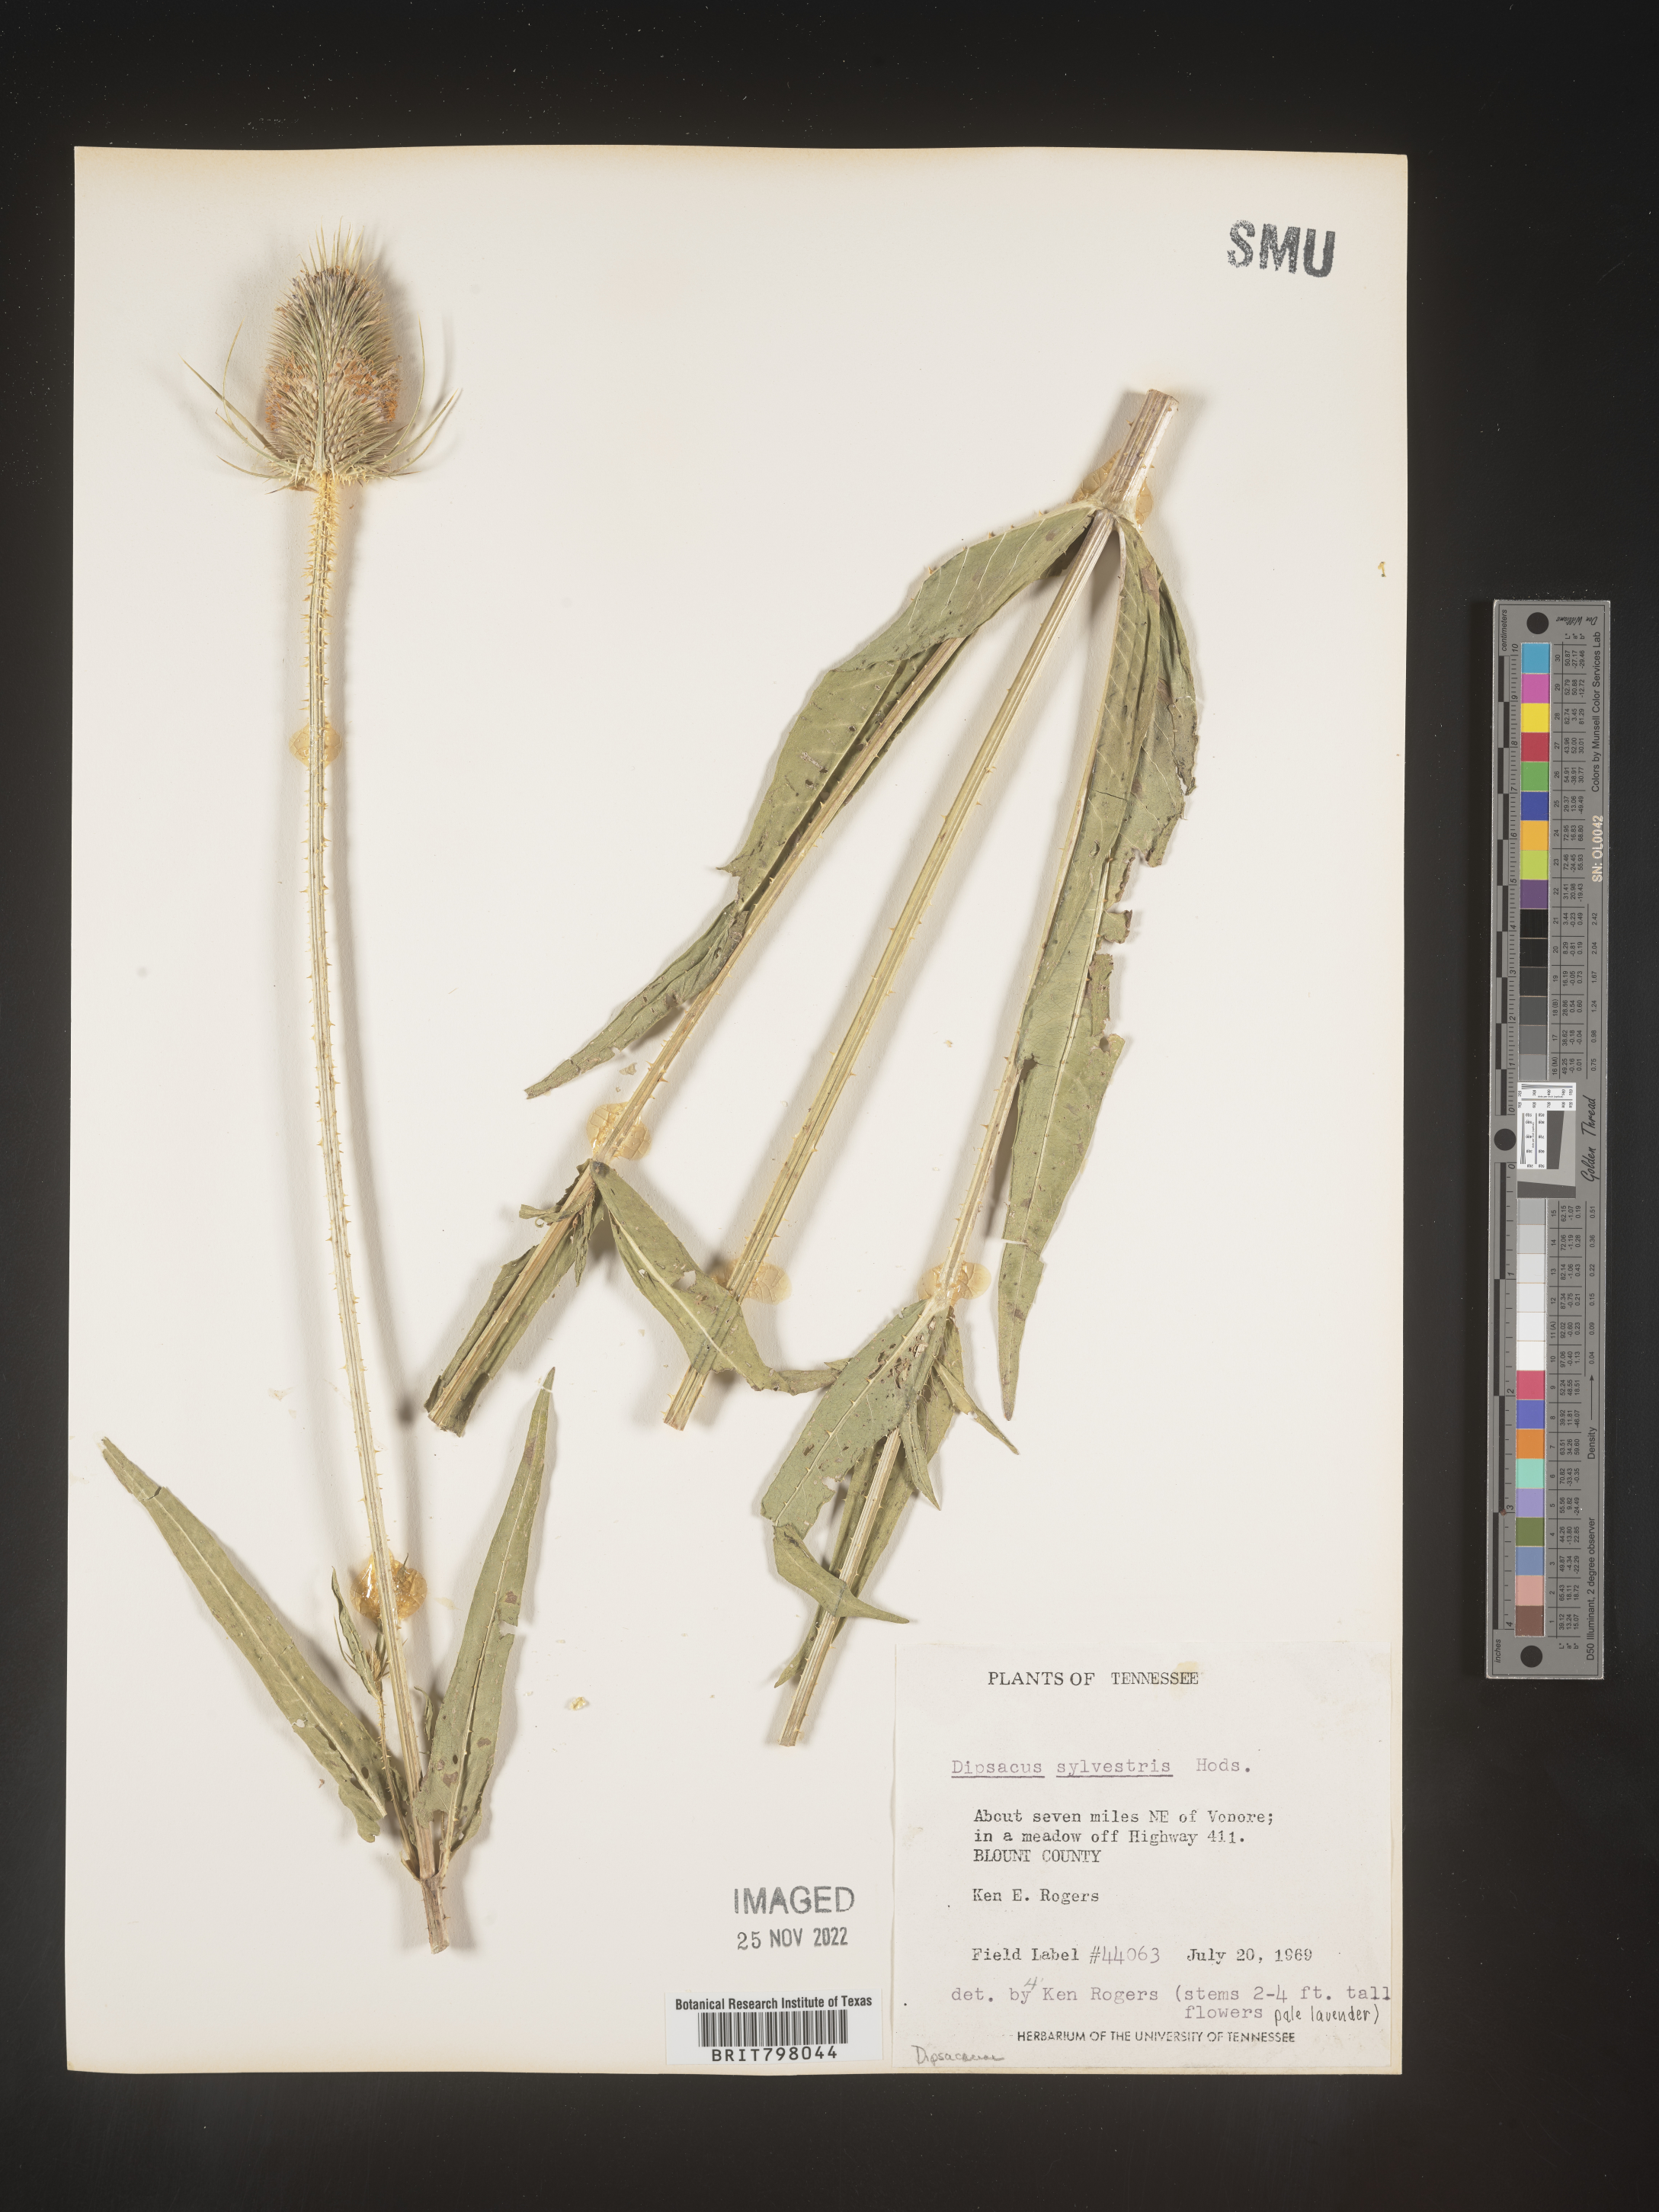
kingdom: Plantae
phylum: Tracheophyta
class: Magnoliopsida
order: Dipsacales
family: Caprifoliaceae
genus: Dipsacus
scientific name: Dipsacus fullonum
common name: Teasel
